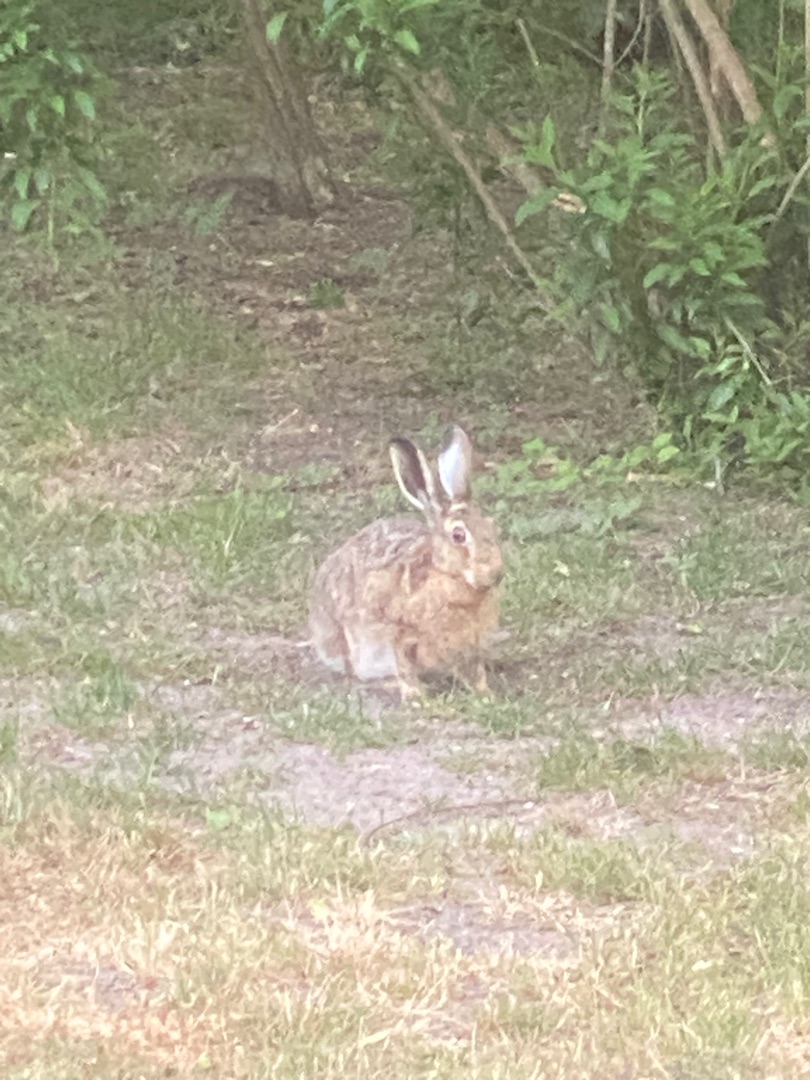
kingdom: Animalia
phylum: Chordata
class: Mammalia
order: Lagomorpha
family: Leporidae
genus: Lepus
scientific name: Lepus europaeus
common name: Hare
